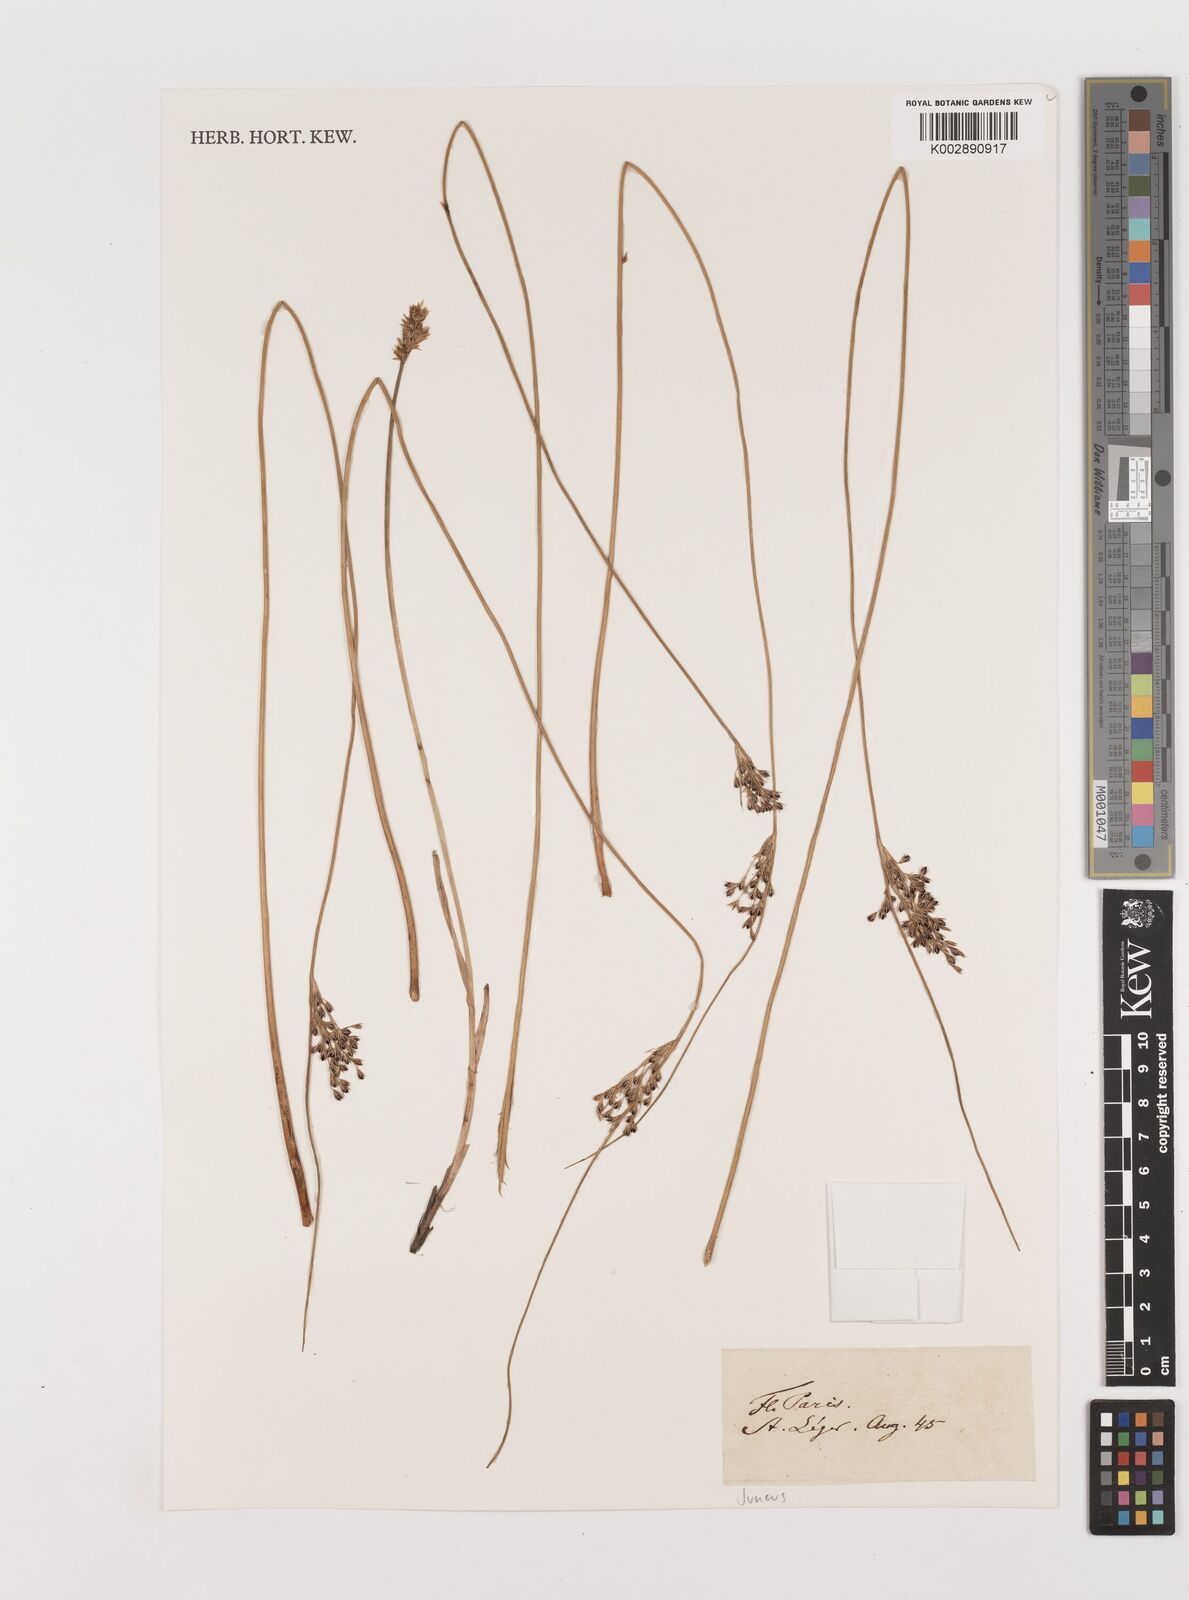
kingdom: Plantae
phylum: Tracheophyta
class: Liliopsida
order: Poales
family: Juncaceae
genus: Juncus
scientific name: Juncus
